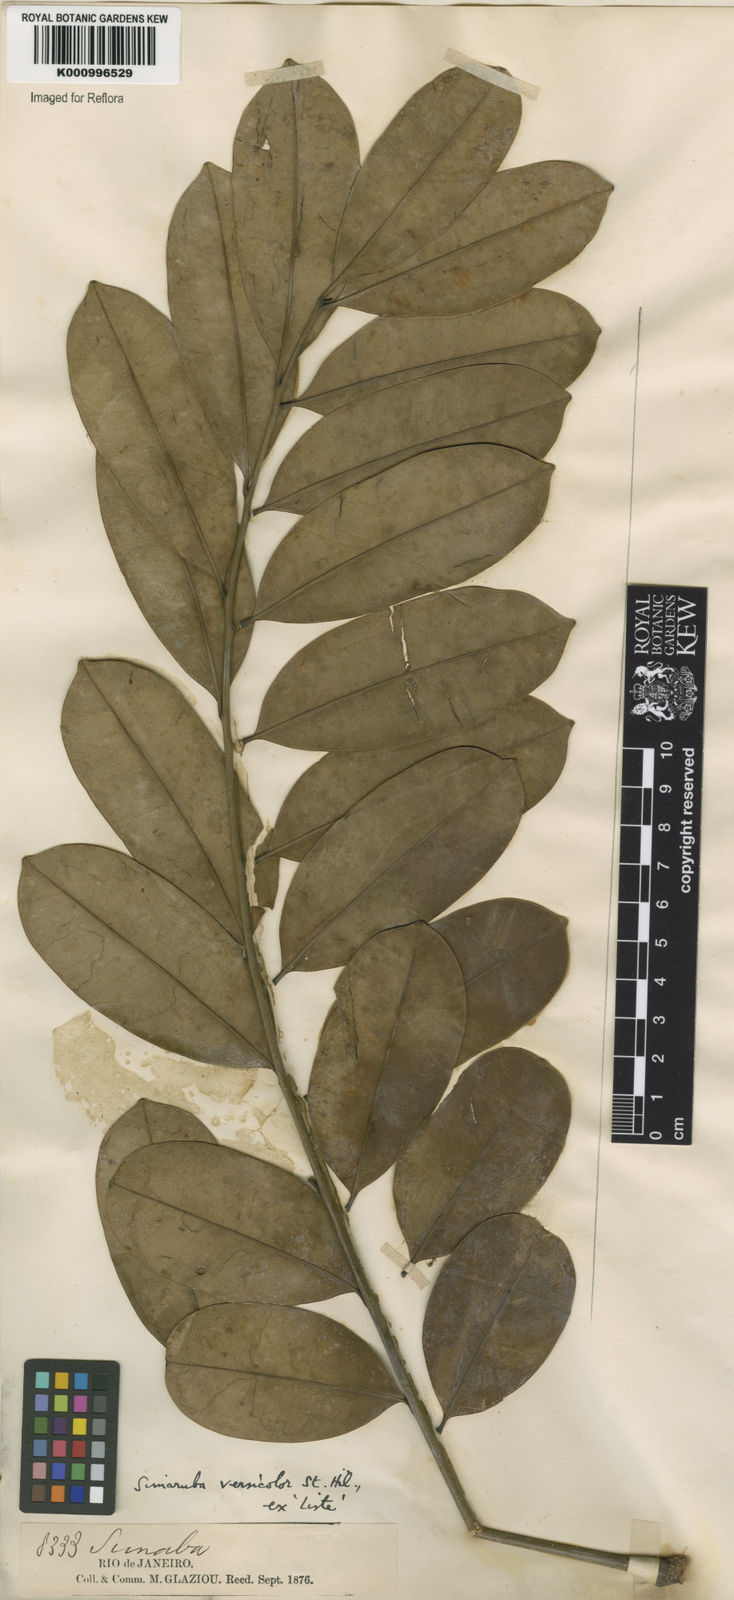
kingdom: Plantae
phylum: Tracheophyta
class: Magnoliopsida
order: Sapindales
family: Simaroubaceae
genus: Simarouba
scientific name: Simarouba versicolor
